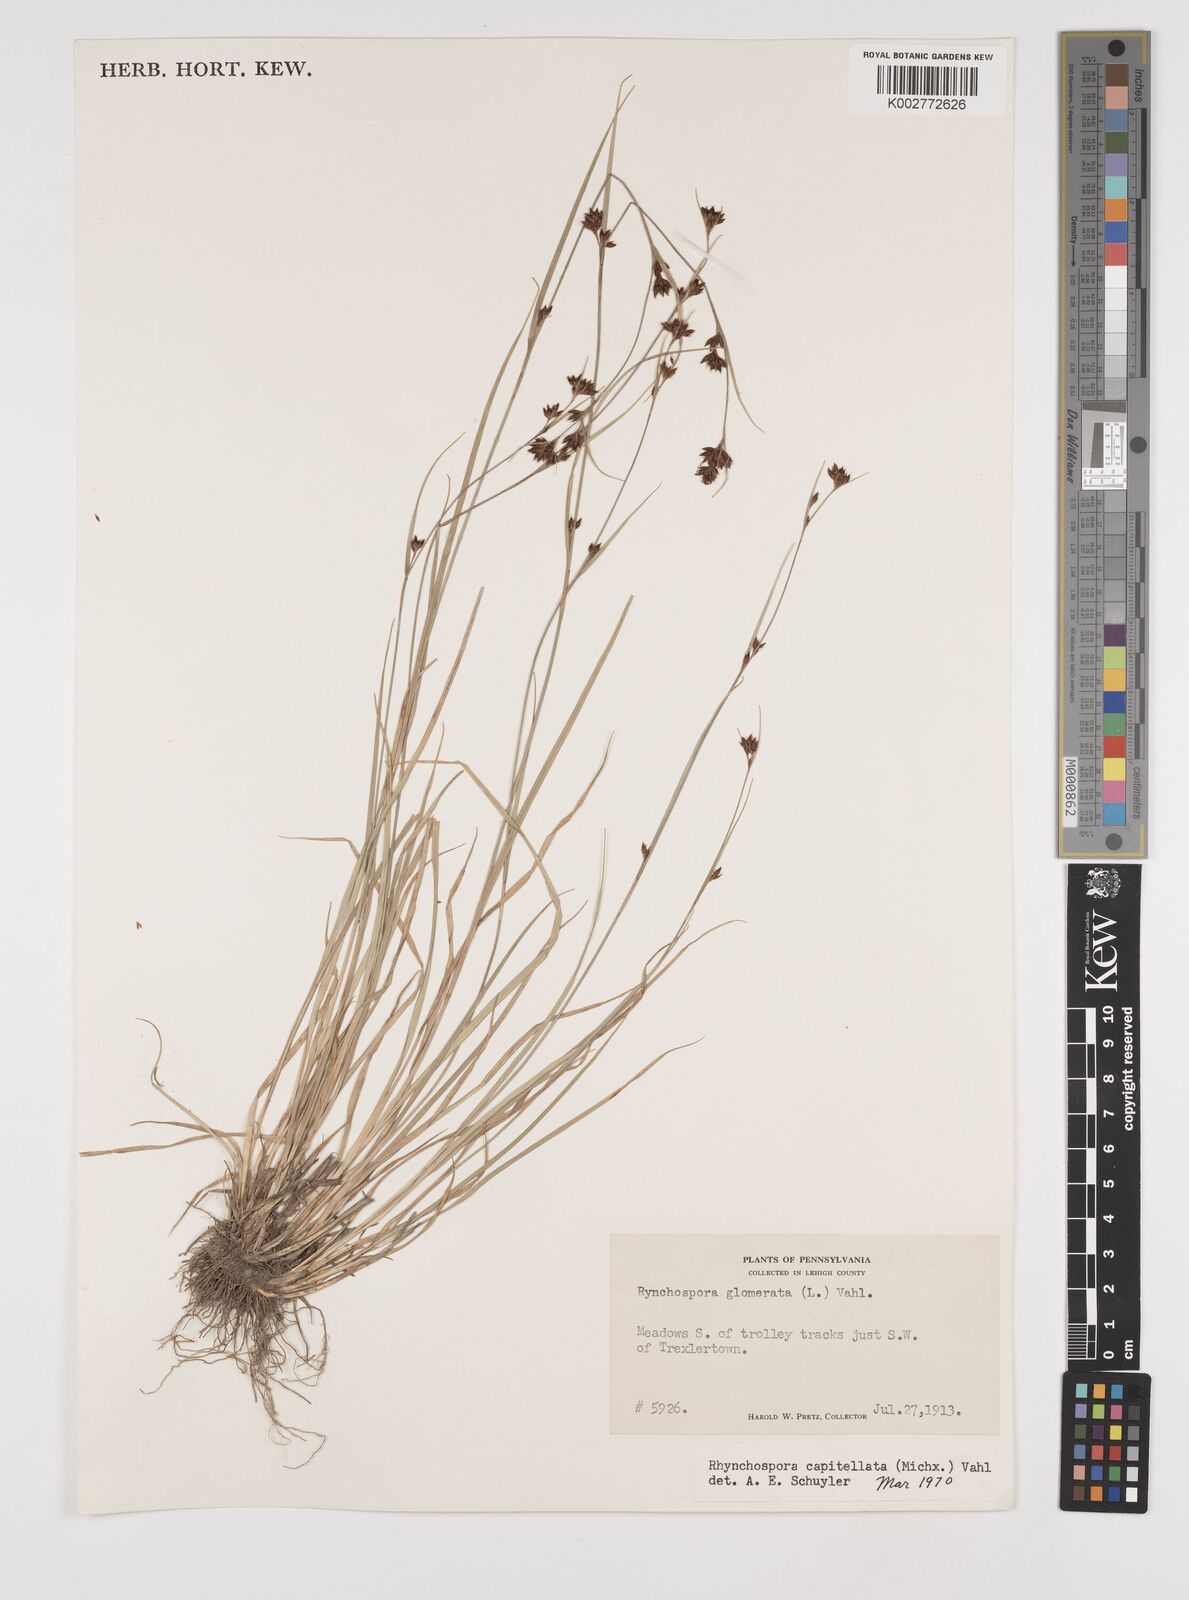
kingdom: Plantae
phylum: Tracheophyta
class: Liliopsida
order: Poales
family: Cyperaceae
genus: Rhynchospora
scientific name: Rhynchospora capitellata
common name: Brownish beaksedge
